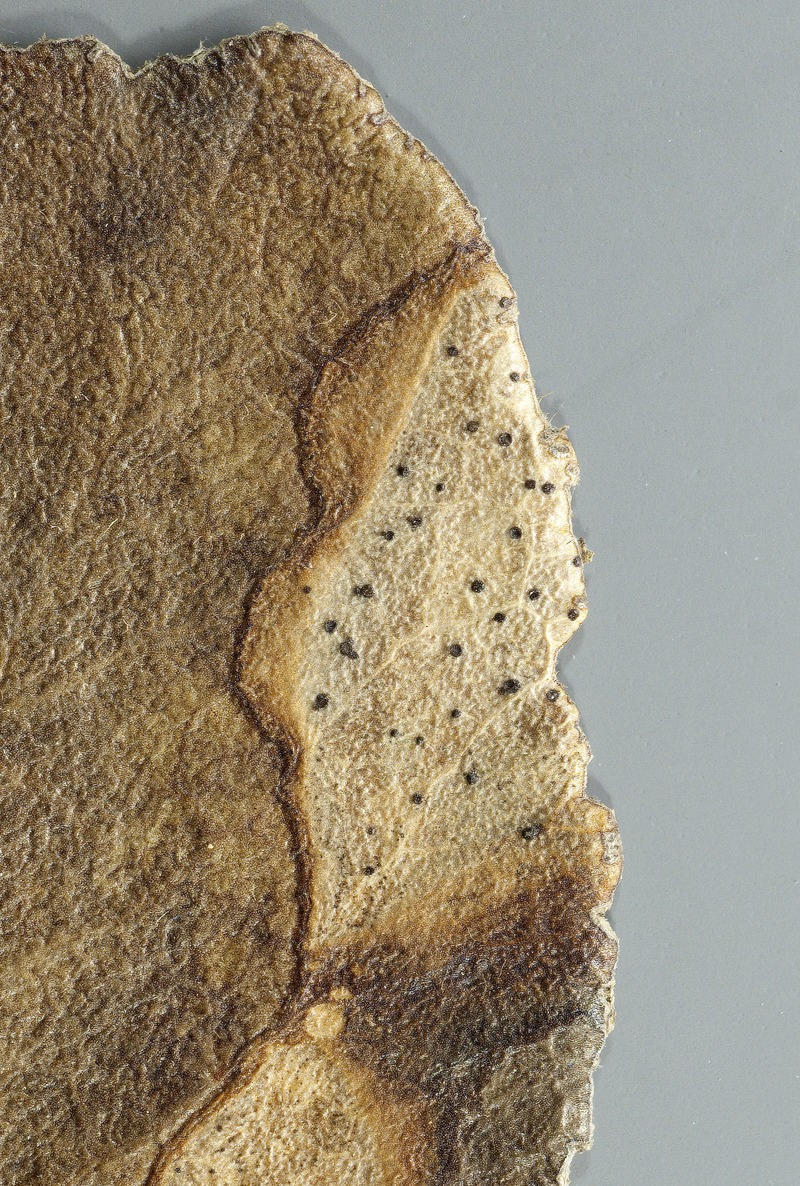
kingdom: Plantae
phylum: Tracheophyta
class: Magnoliopsida
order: Garryales
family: Garryaceae
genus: Garrya
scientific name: Garrya elliptica
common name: Silk-tassel
